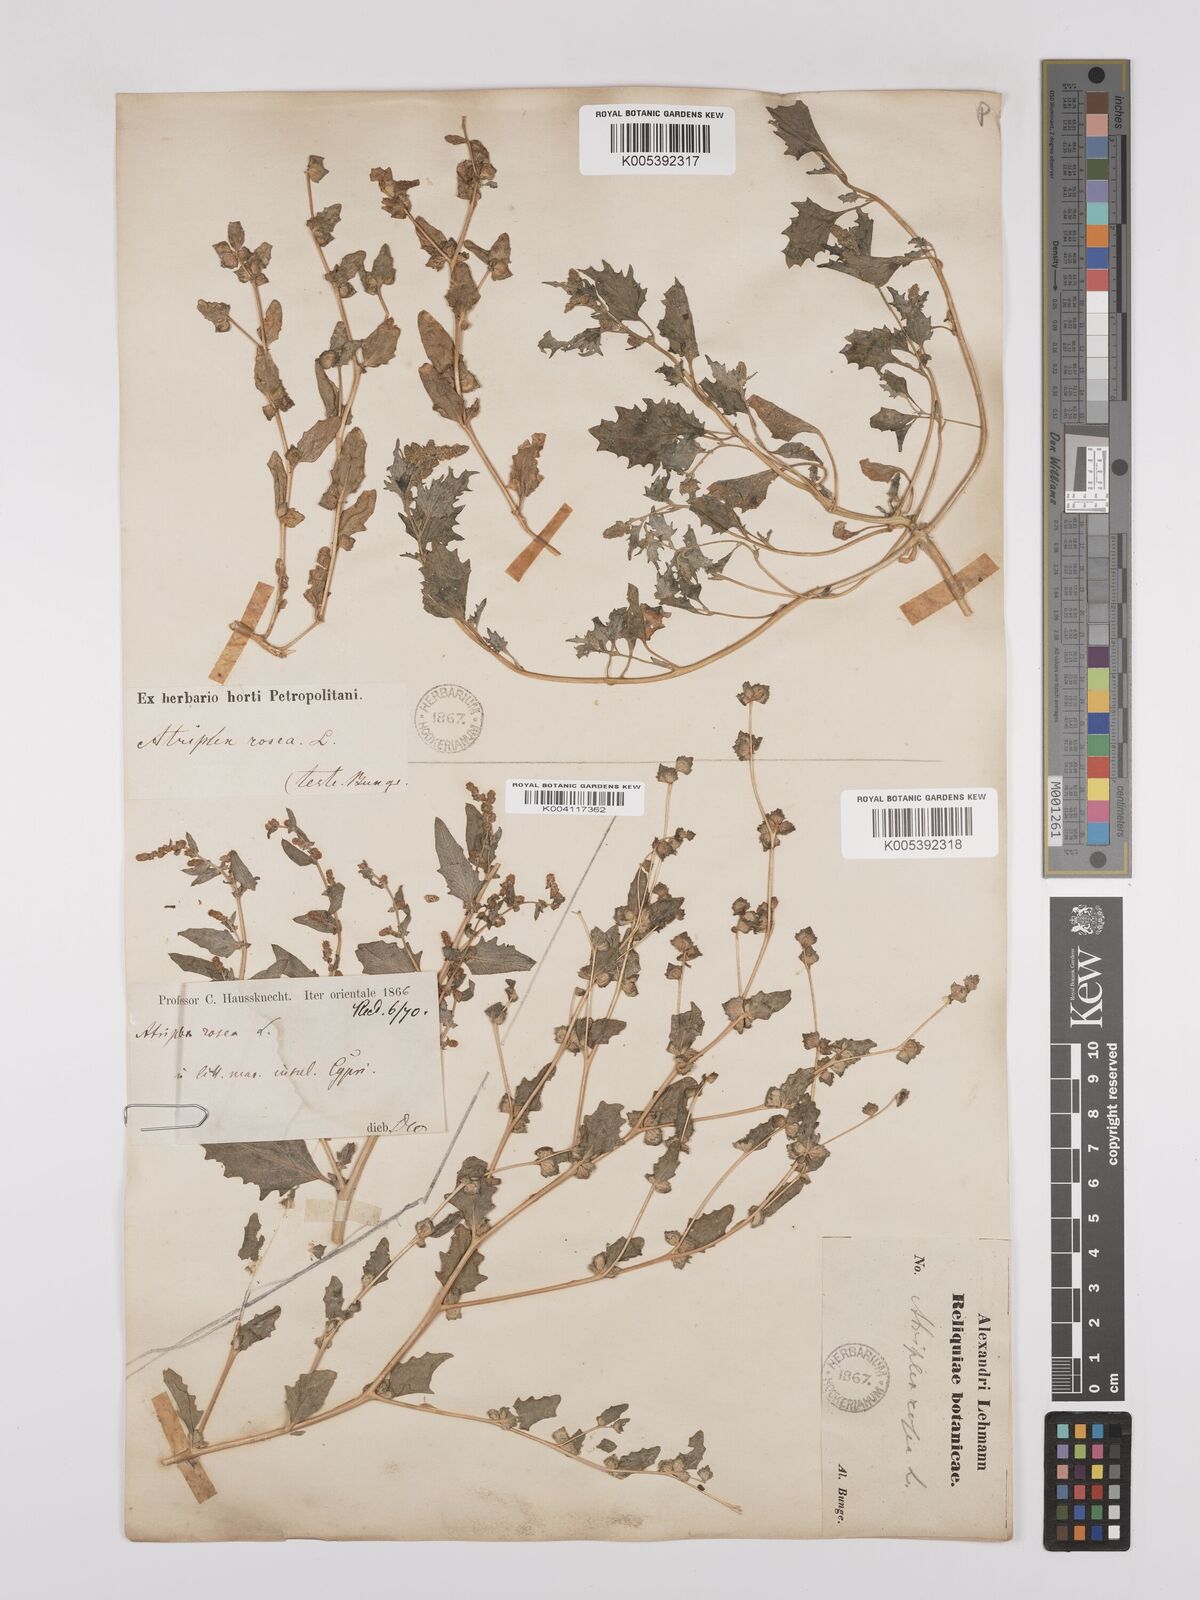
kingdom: Plantae
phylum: Tracheophyta
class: Magnoliopsida
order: Caryophyllales
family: Amaranthaceae
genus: Atriplex
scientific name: Atriplex
